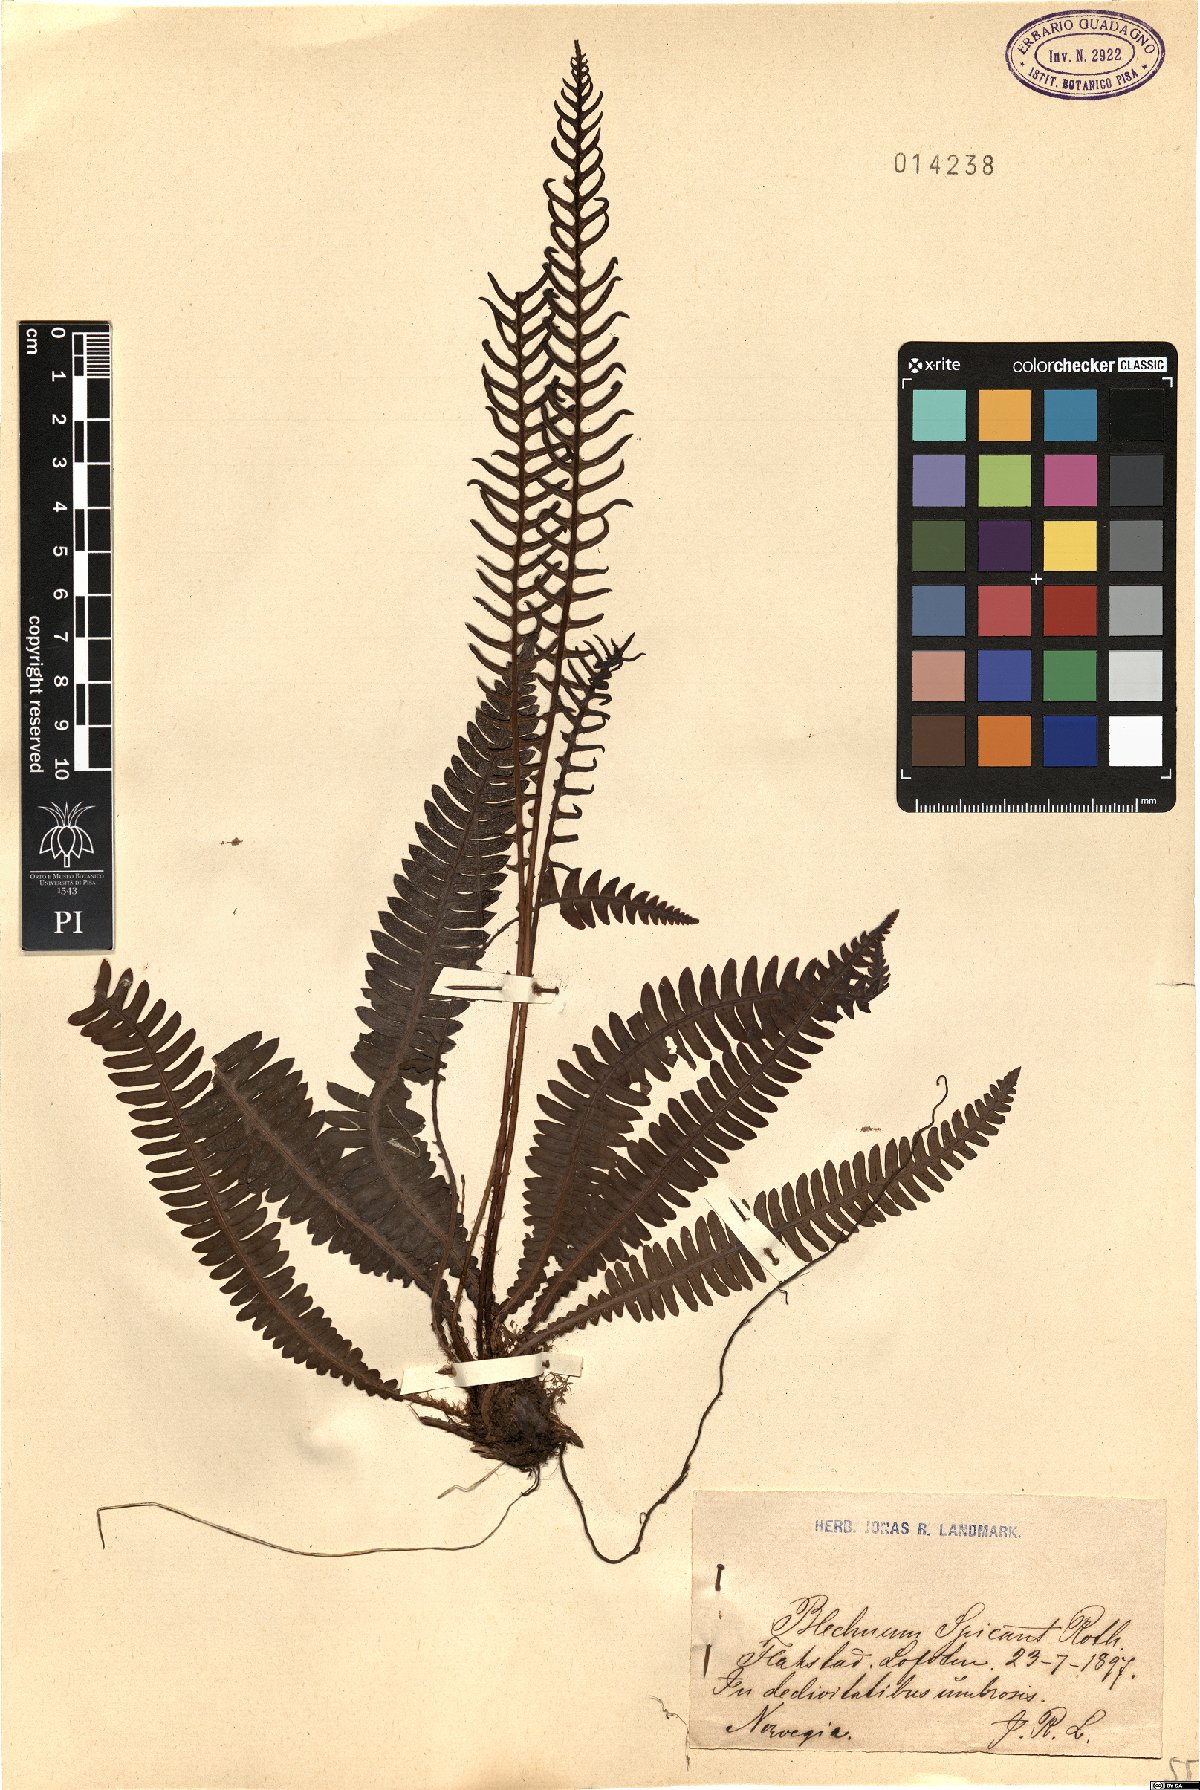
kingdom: Plantae
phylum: Tracheophyta
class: Polypodiopsida
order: Polypodiales
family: Blechnaceae
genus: Struthiopteris
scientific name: Struthiopteris spicant
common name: Deer fern
